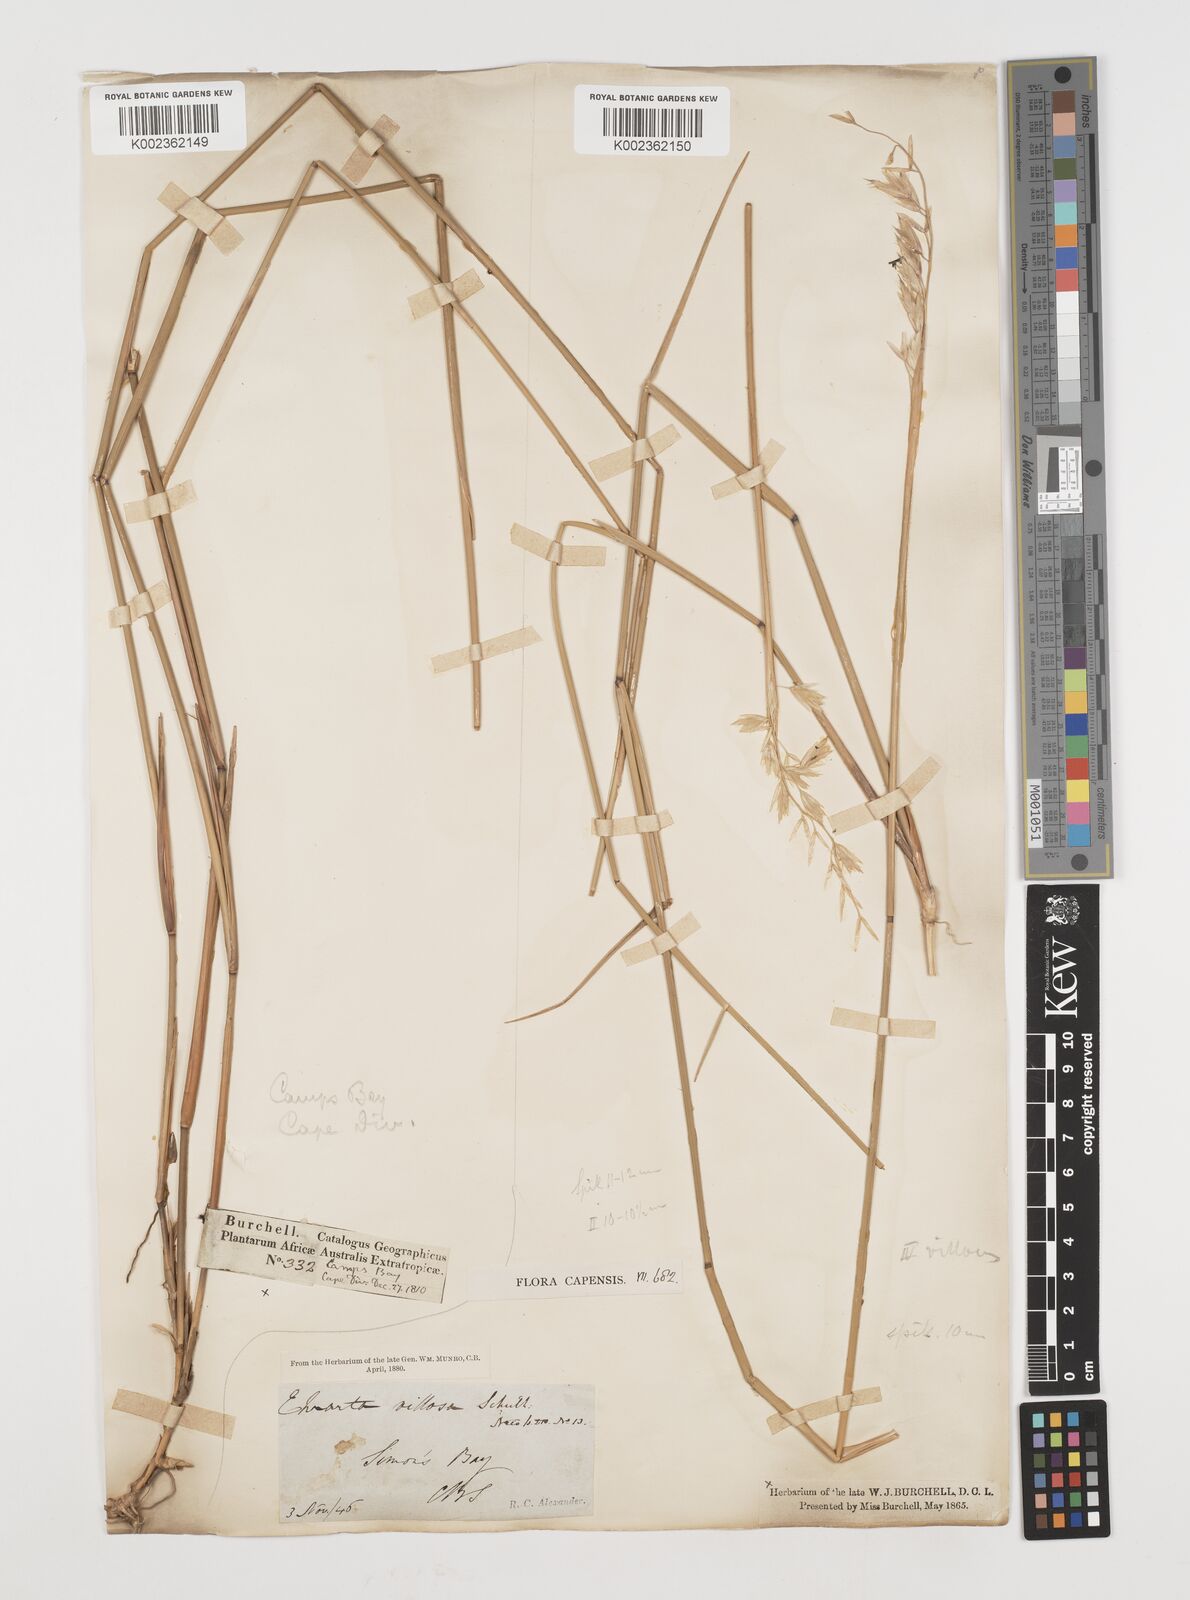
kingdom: Plantae
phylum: Tracheophyta
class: Liliopsida
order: Poales
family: Poaceae
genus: Ehrharta
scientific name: Ehrharta villosa
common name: Pyp grass
